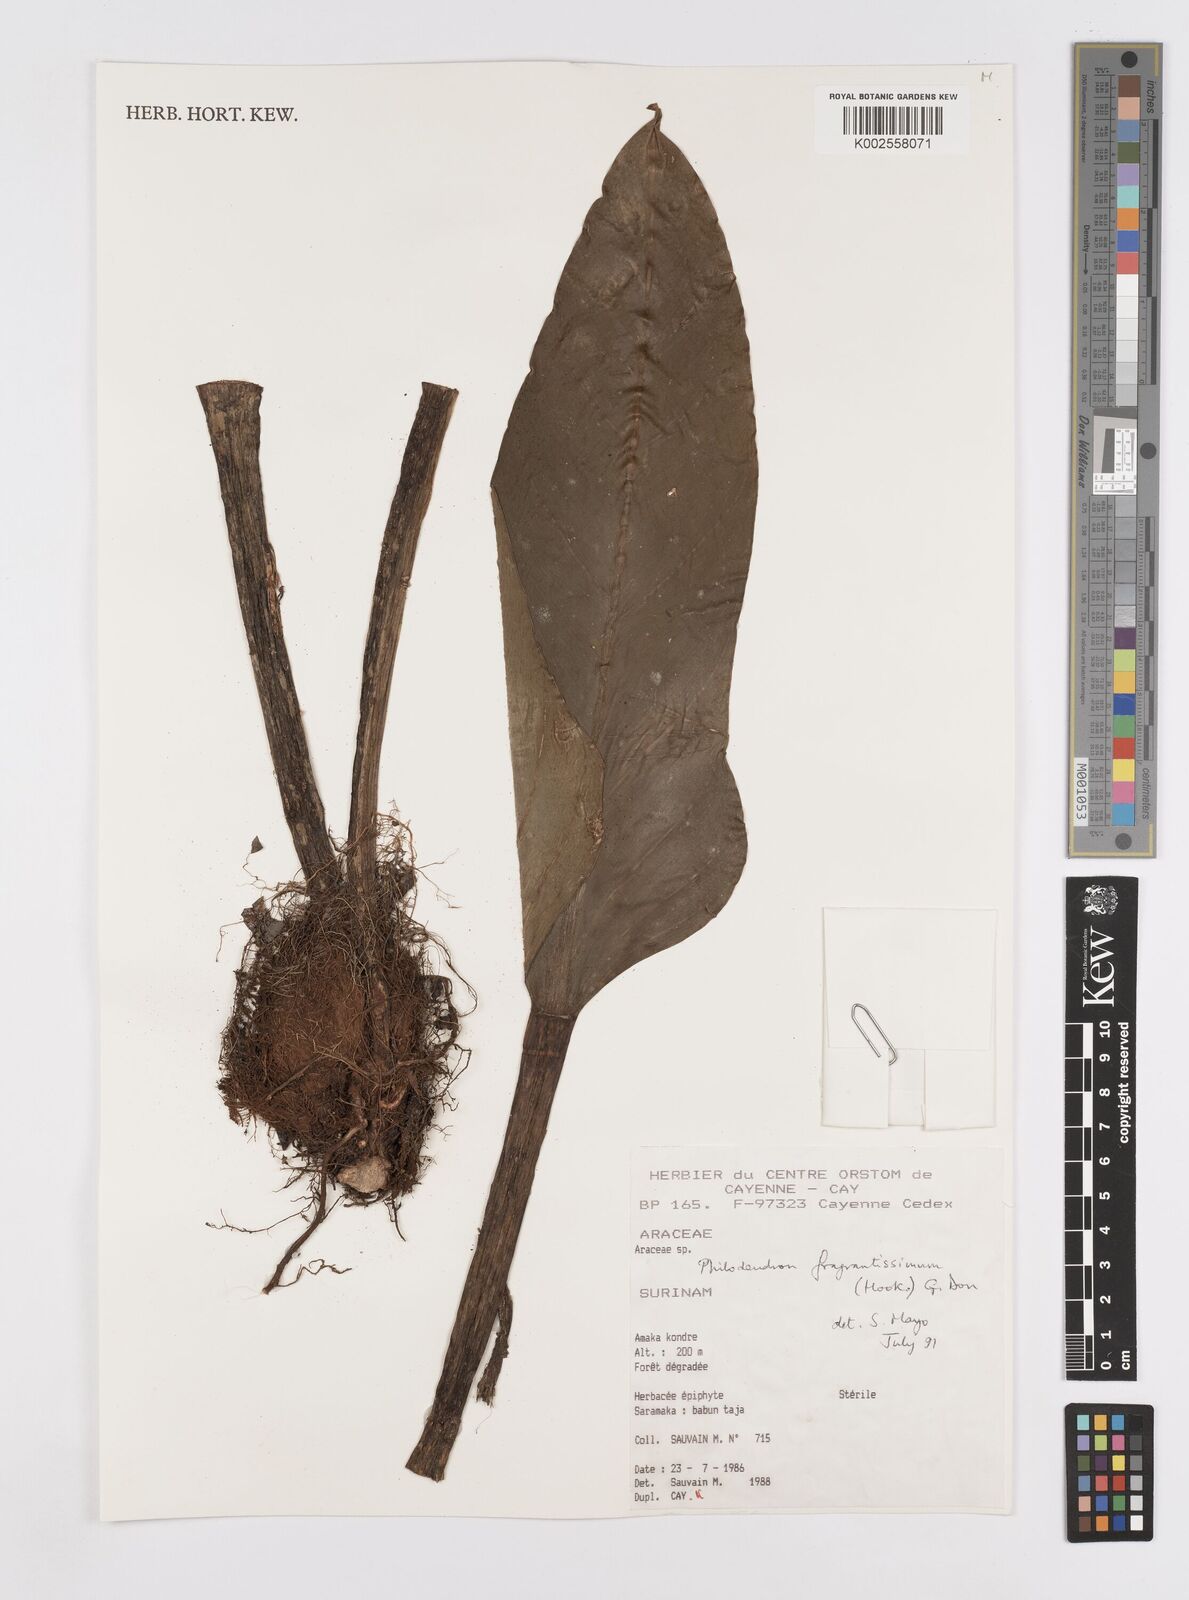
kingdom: Plantae
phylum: Tracheophyta
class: Liliopsida
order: Alismatales
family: Araceae
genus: Philodendron
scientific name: Philodendron fragrantissimum
